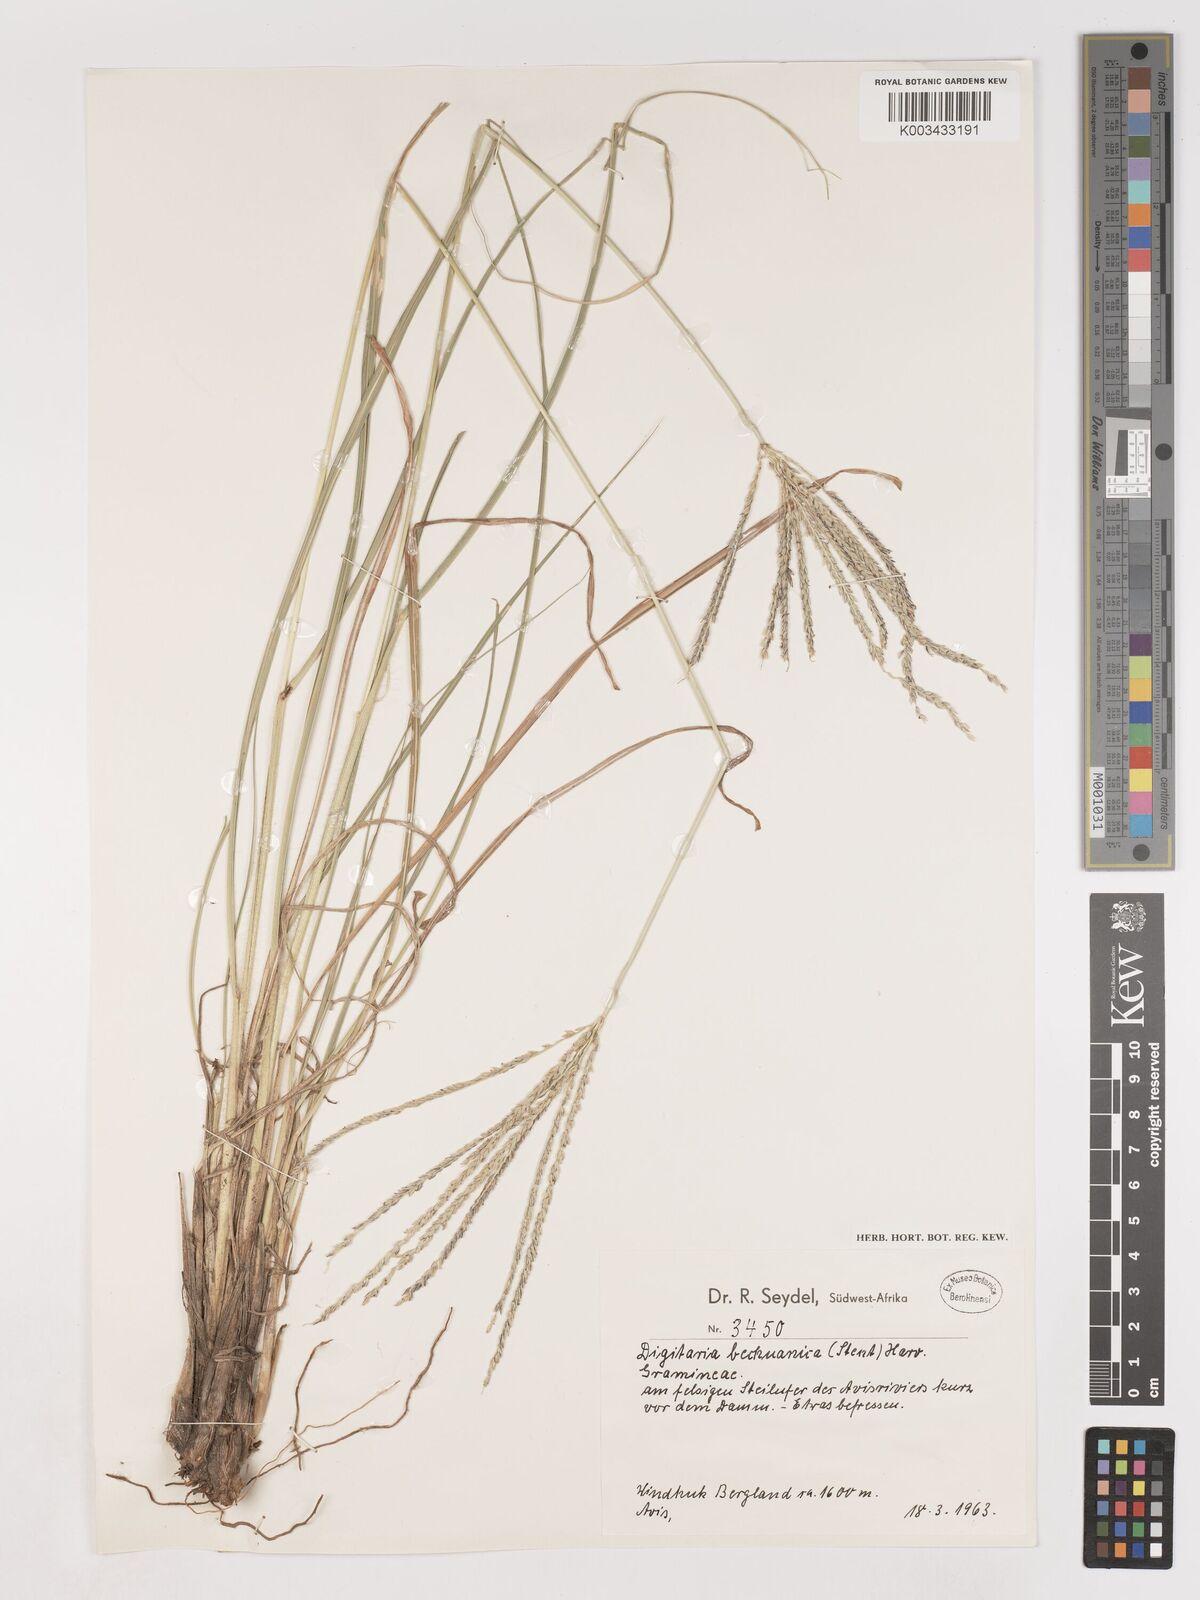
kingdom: Plantae
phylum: Tracheophyta
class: Liliopsida
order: Poales
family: Poaceae
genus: Digitaria
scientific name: Digitaria eriantha
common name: Digitgrass
